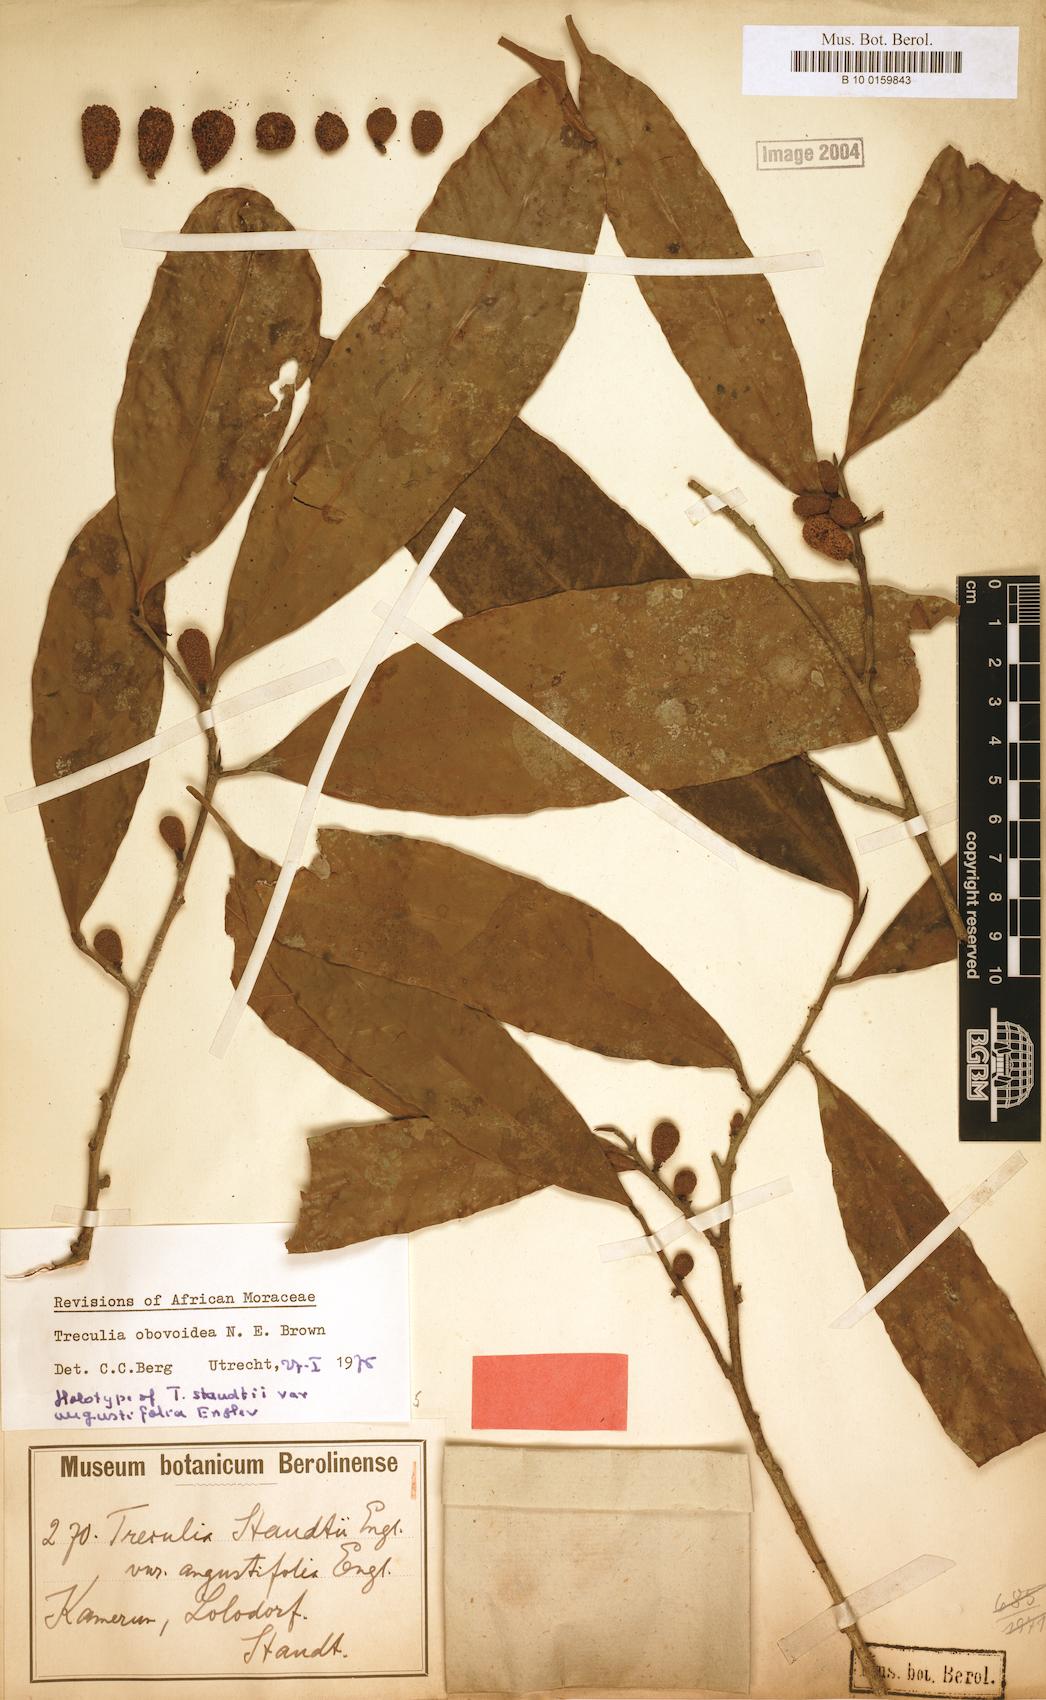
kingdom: Plantae
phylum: Tracheophyta
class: Magnoliopsida
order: Rosales
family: Moraceae
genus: Treculia
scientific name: Treculia obovoidea
